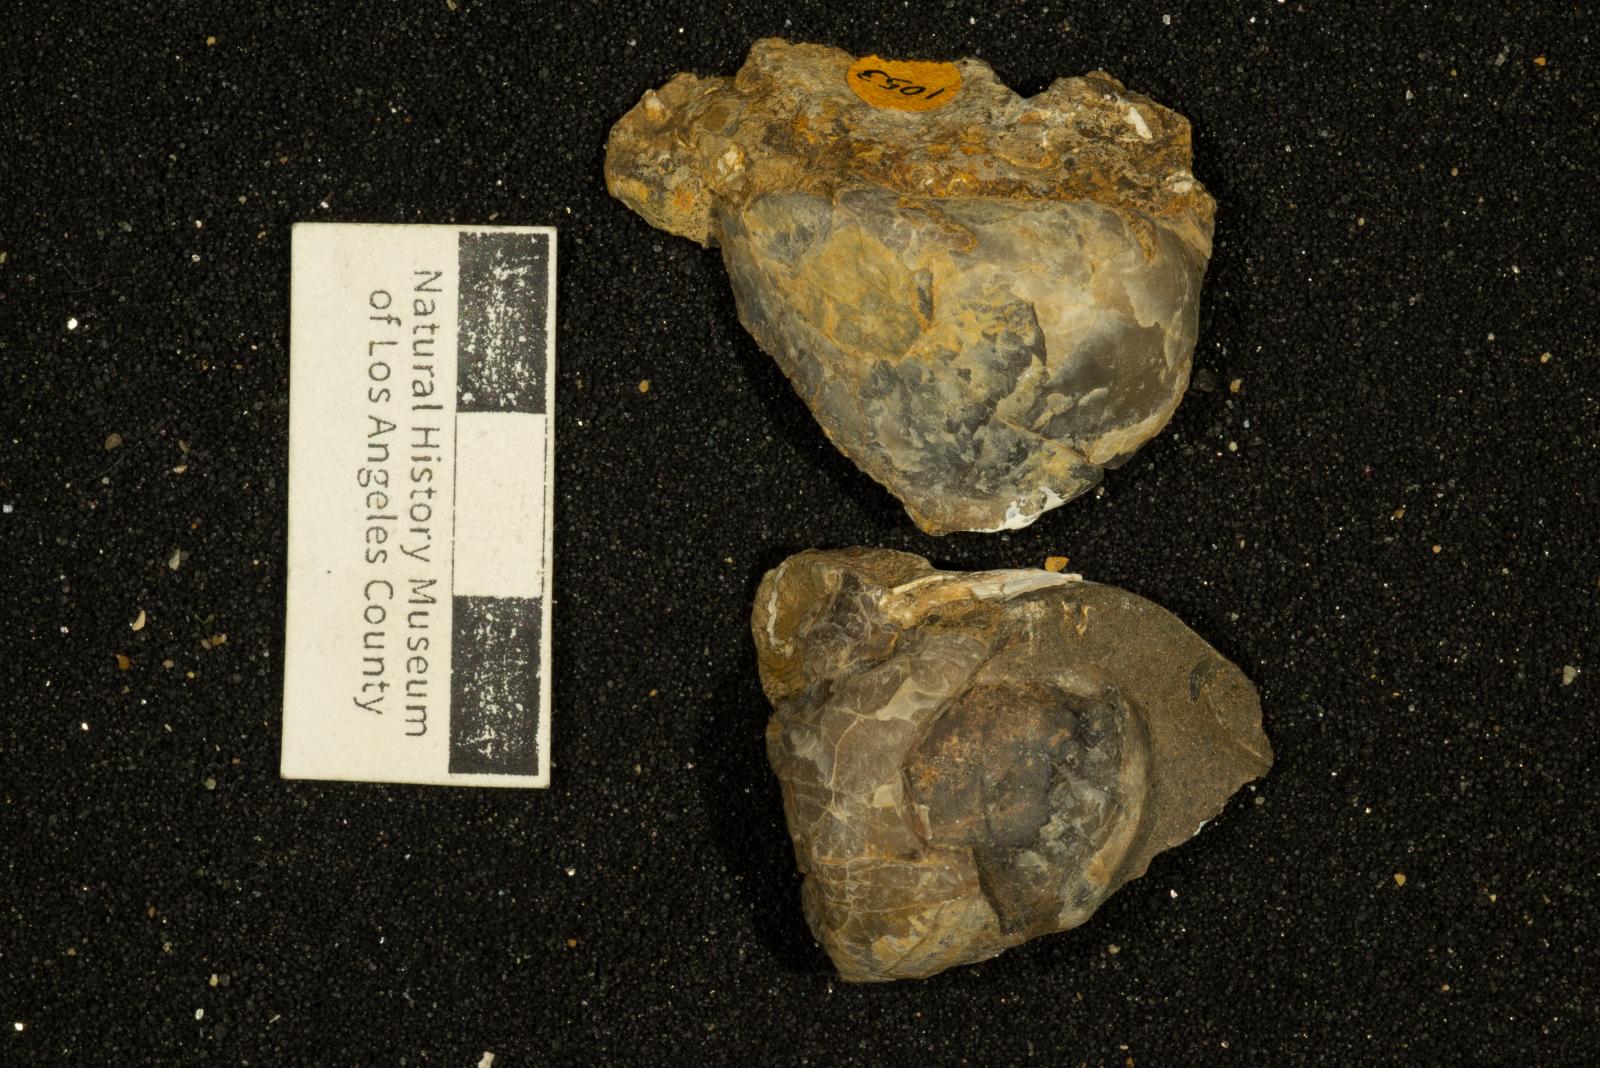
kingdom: Animalia
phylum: Mollusca
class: Bivalvia
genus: Phygraea
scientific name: Phygraea
